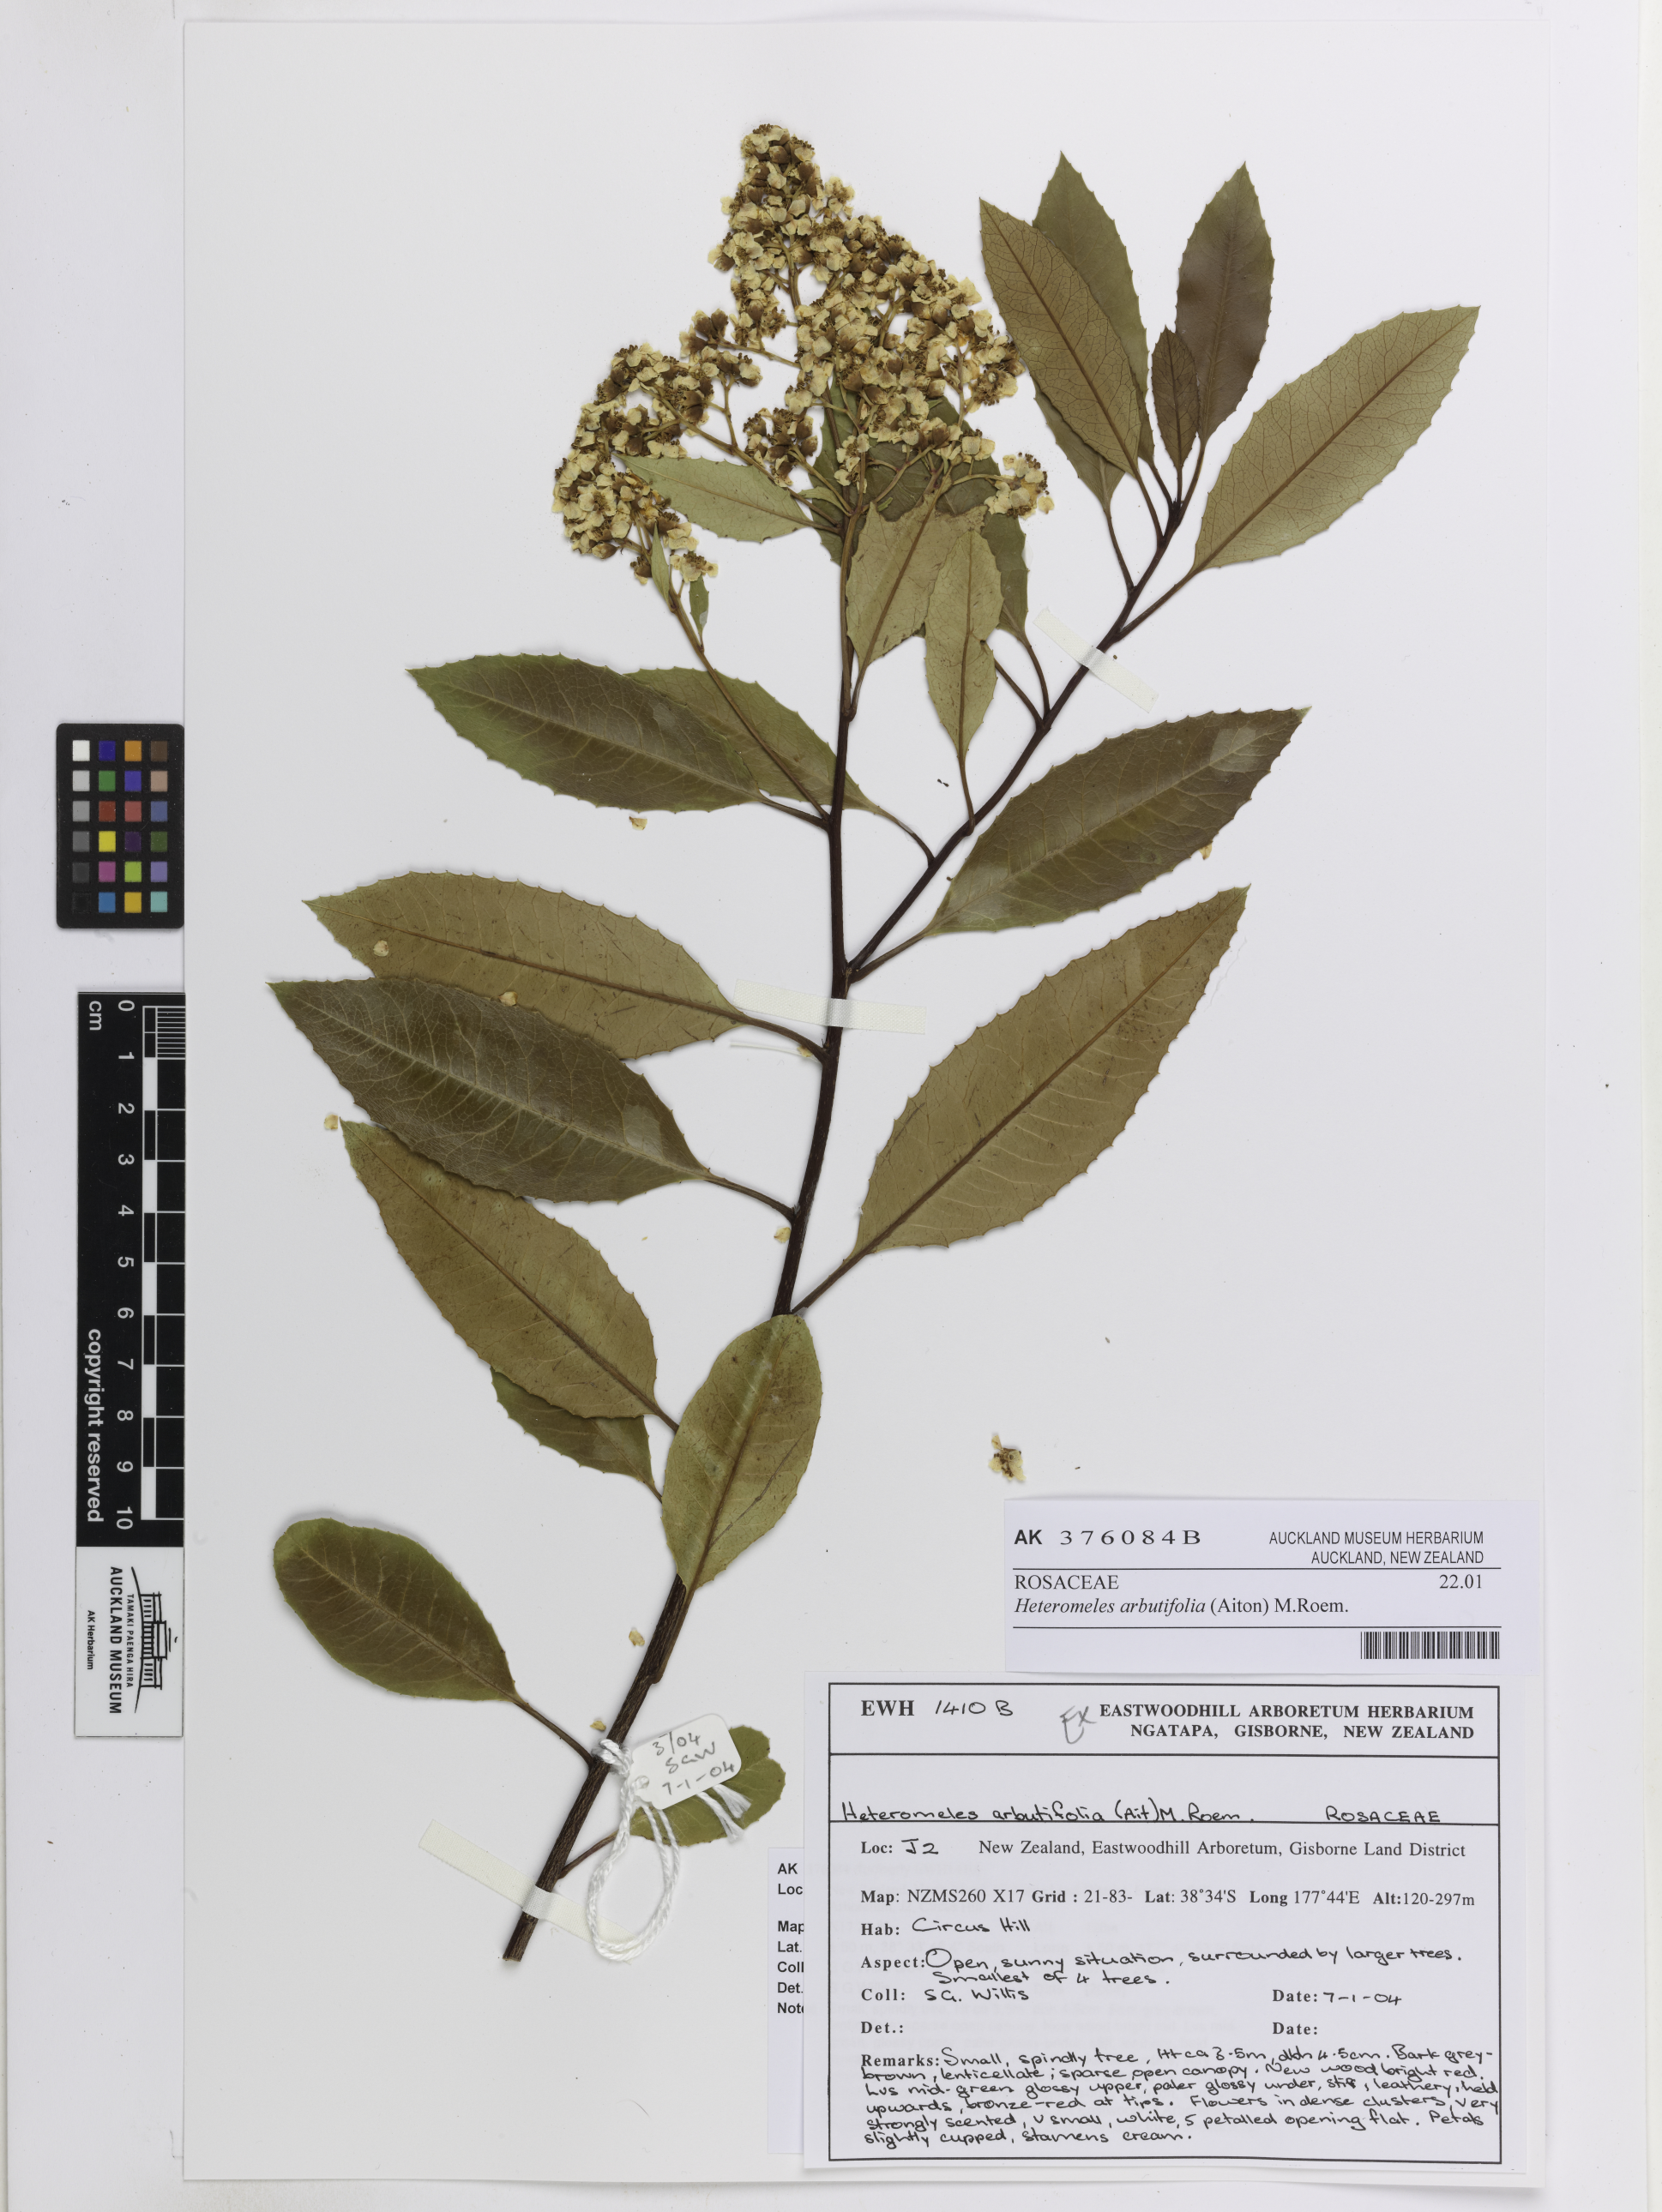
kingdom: Plantae
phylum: Tracheophyta
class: Magnoliopsida
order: Rosales
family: Rosaceae
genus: Heteromeles
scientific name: Heteromeles arbutifolia
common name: California-holly
